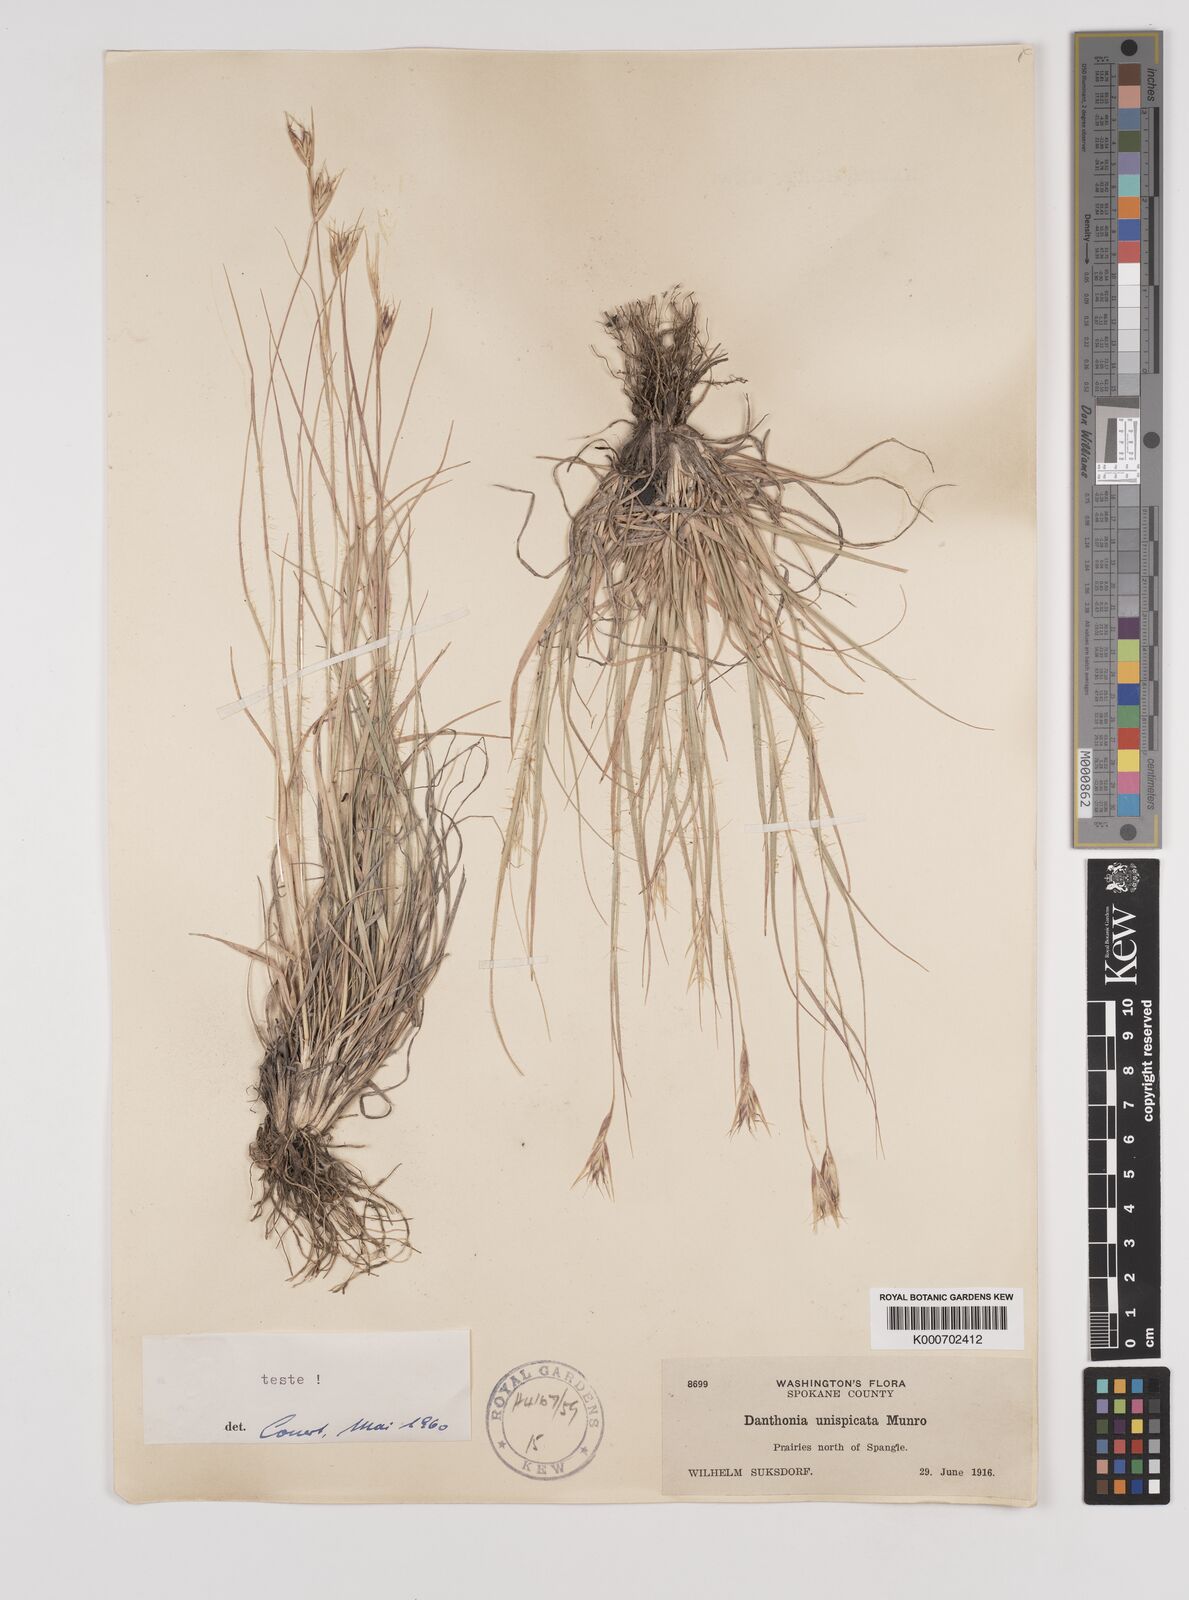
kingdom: Plantae
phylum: Tracheophyta
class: Liliopsida
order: Poales
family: Poaceae
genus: Danthonia
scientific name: Danthonia unispicata
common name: Few-flowered oatgrass
